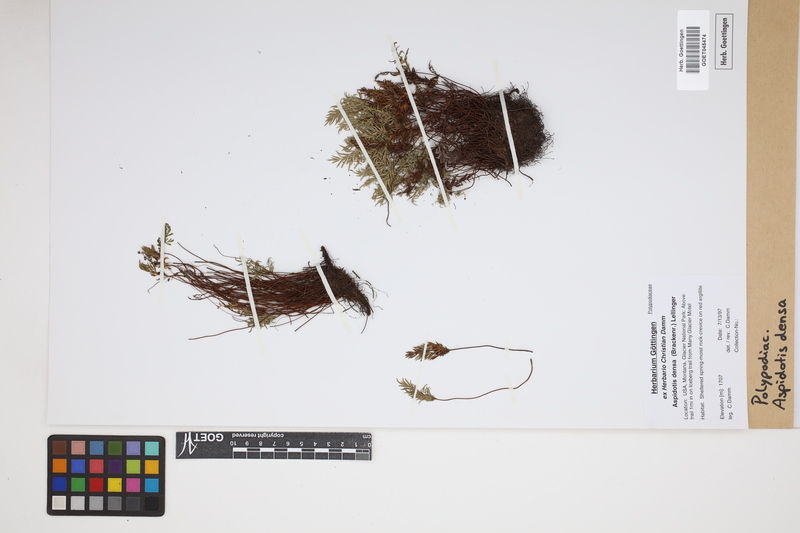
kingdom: Plantae
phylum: Tracheophyta
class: Polypodiopsida
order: Polypodiales
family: Pteridaceae
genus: Aspidotis
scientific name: Aspidotis densa
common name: Indian's dream
